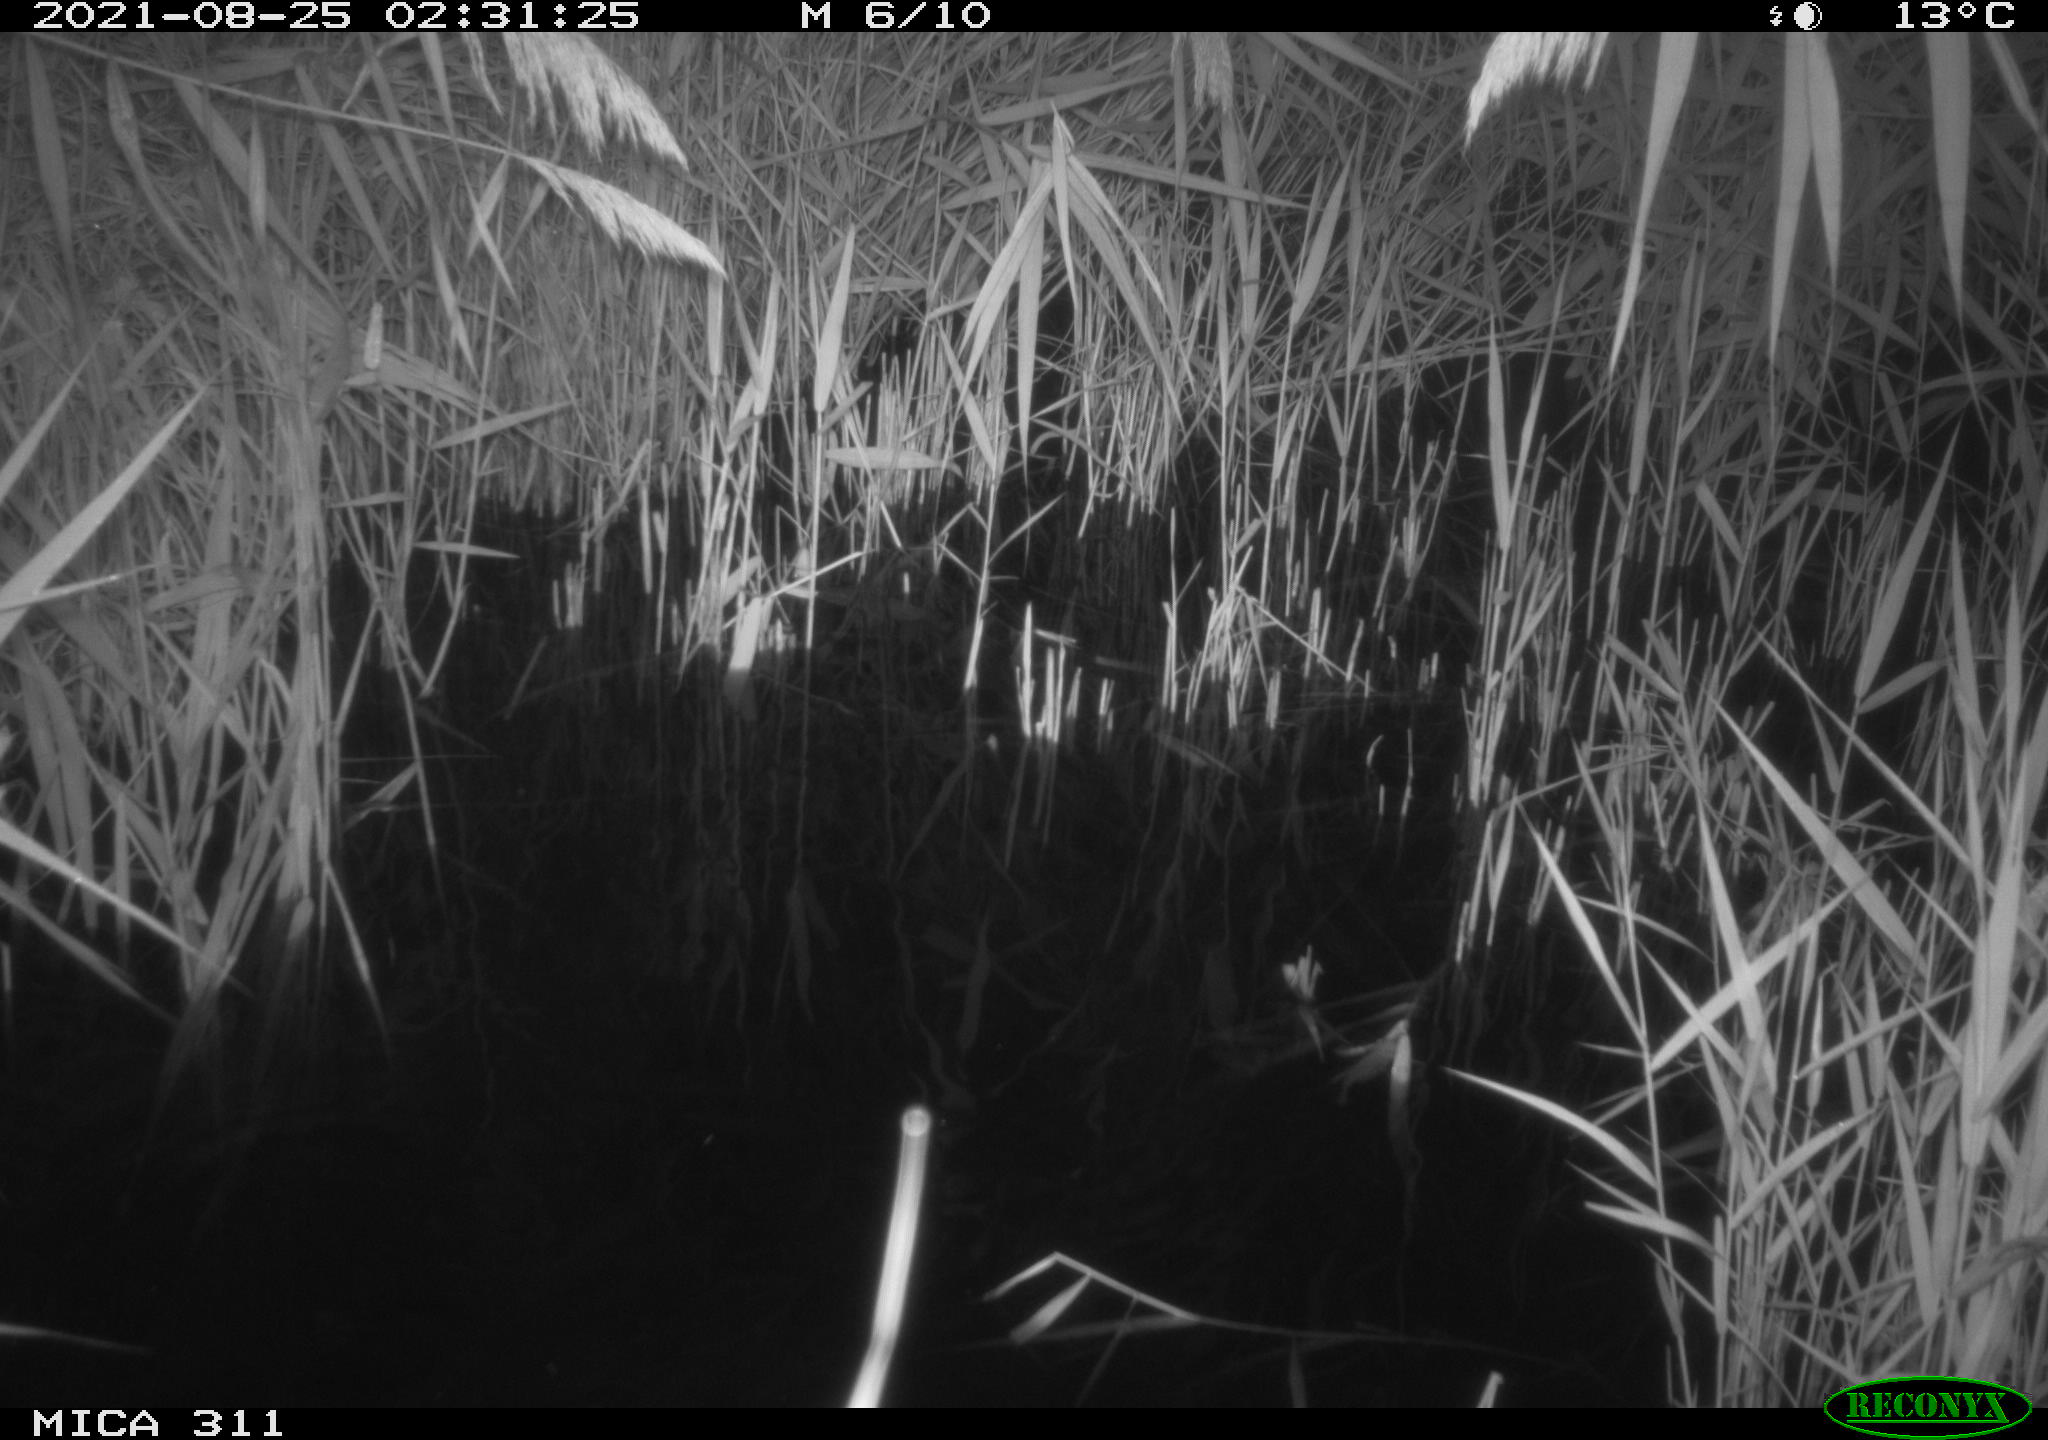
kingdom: Animalia
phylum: Chordata
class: Mammalia
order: Rodentia
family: Muridae
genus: Rattus
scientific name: Rattus norvegicus
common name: Brown rat
